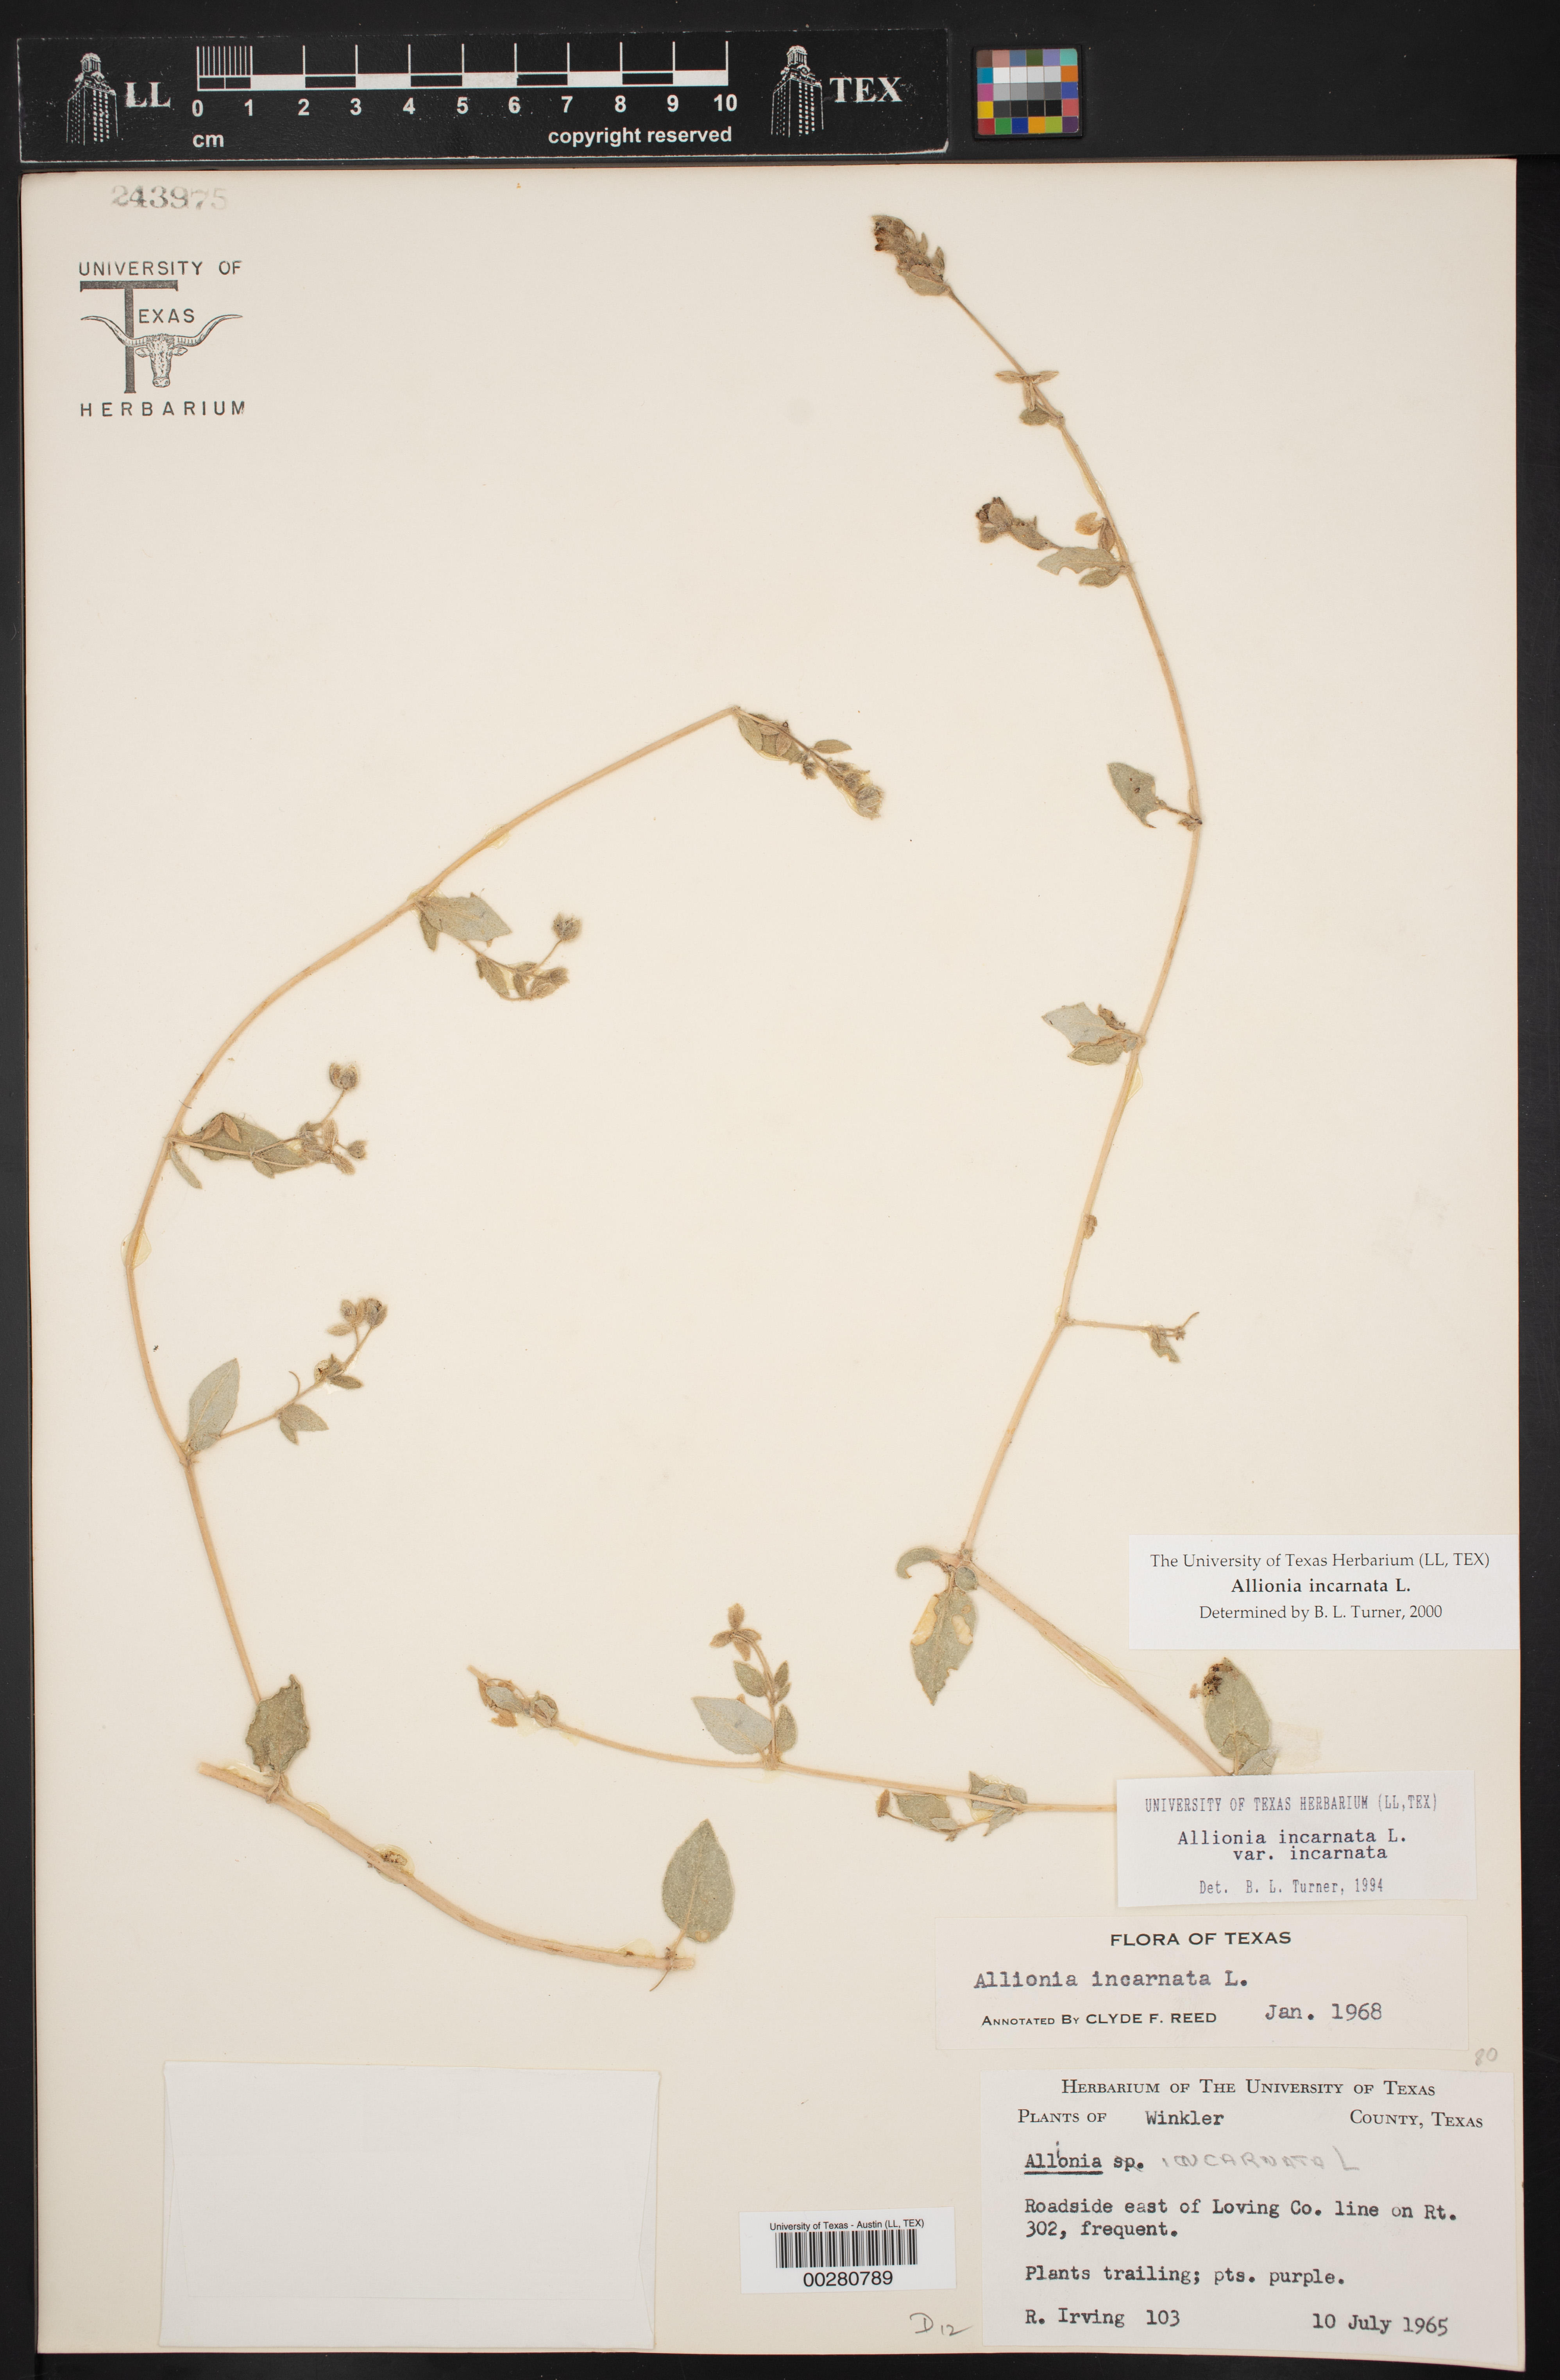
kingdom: Plantae
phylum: Tracheophyta
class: Magnoliopsida
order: Caryophyllales
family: Nyctaginaceae
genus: Allionia
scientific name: Allionia incarnata
